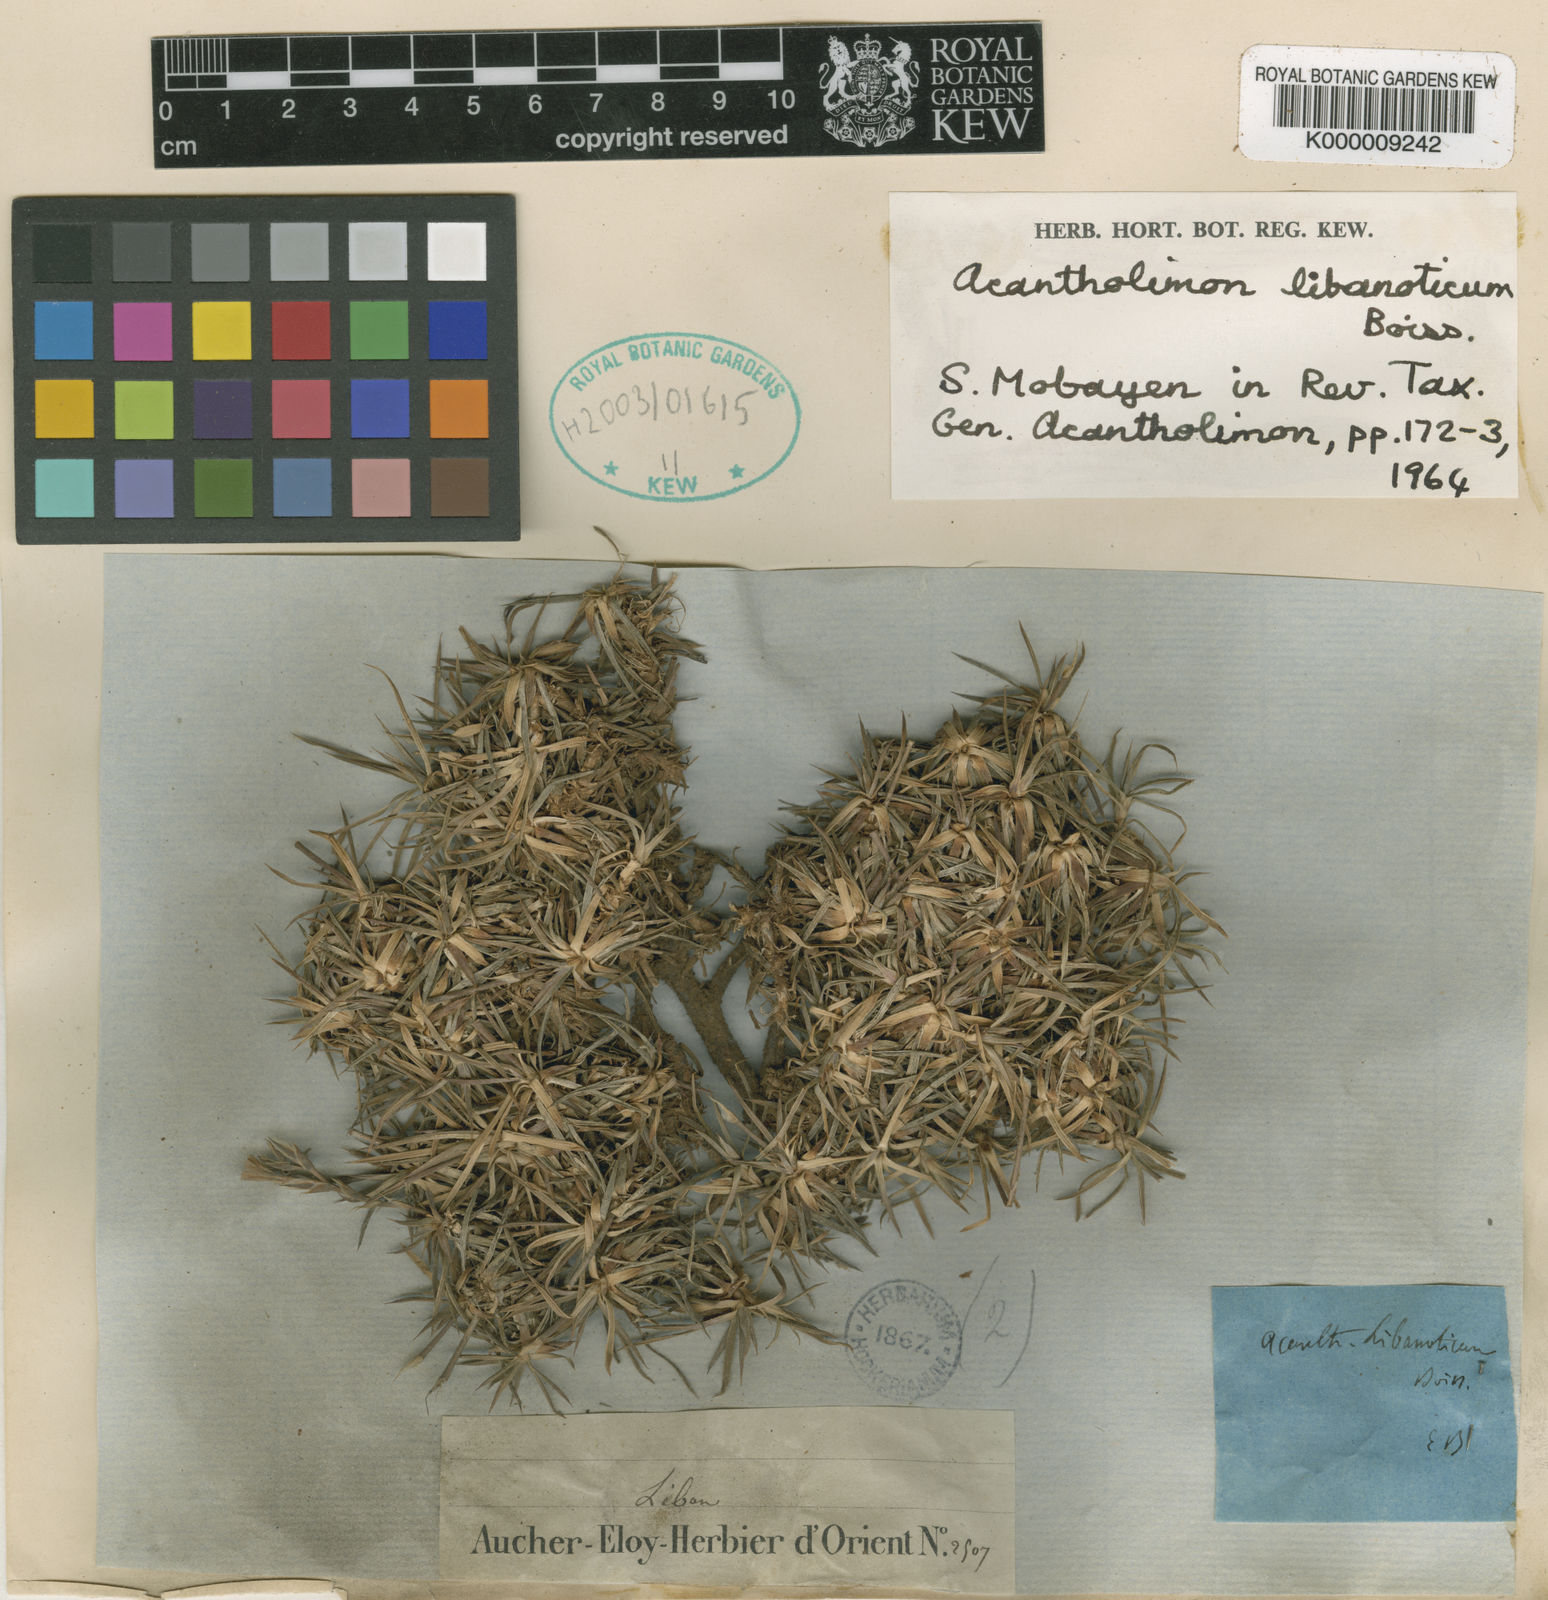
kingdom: Plantae
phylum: Tracheophyta
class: Magnoliopsida
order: Caryophyllales
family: Plumbaginaceae
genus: Acantholimon
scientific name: Acantholimon libanoticum
